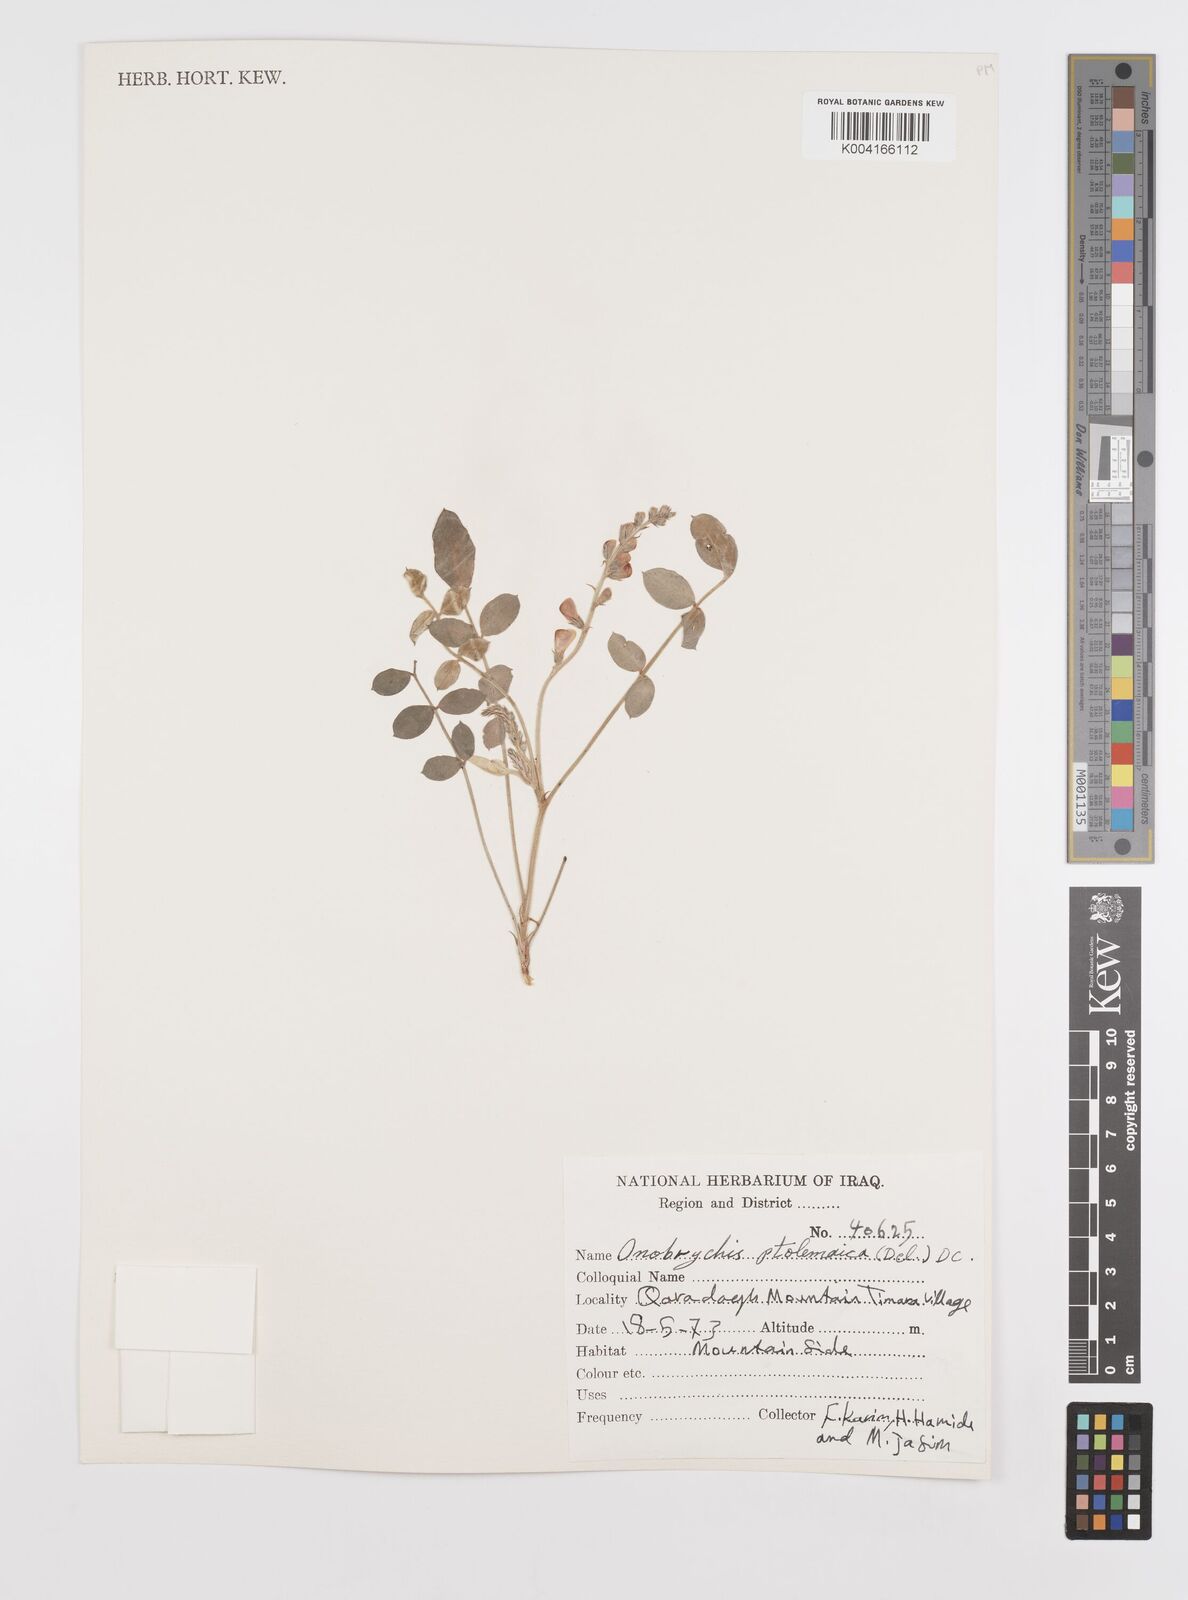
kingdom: Plantae
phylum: Tracheophyta
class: Magnoliopsida
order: Fabales
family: Fabaceae
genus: Onobrychis
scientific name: Onobrychis ptolemaica
